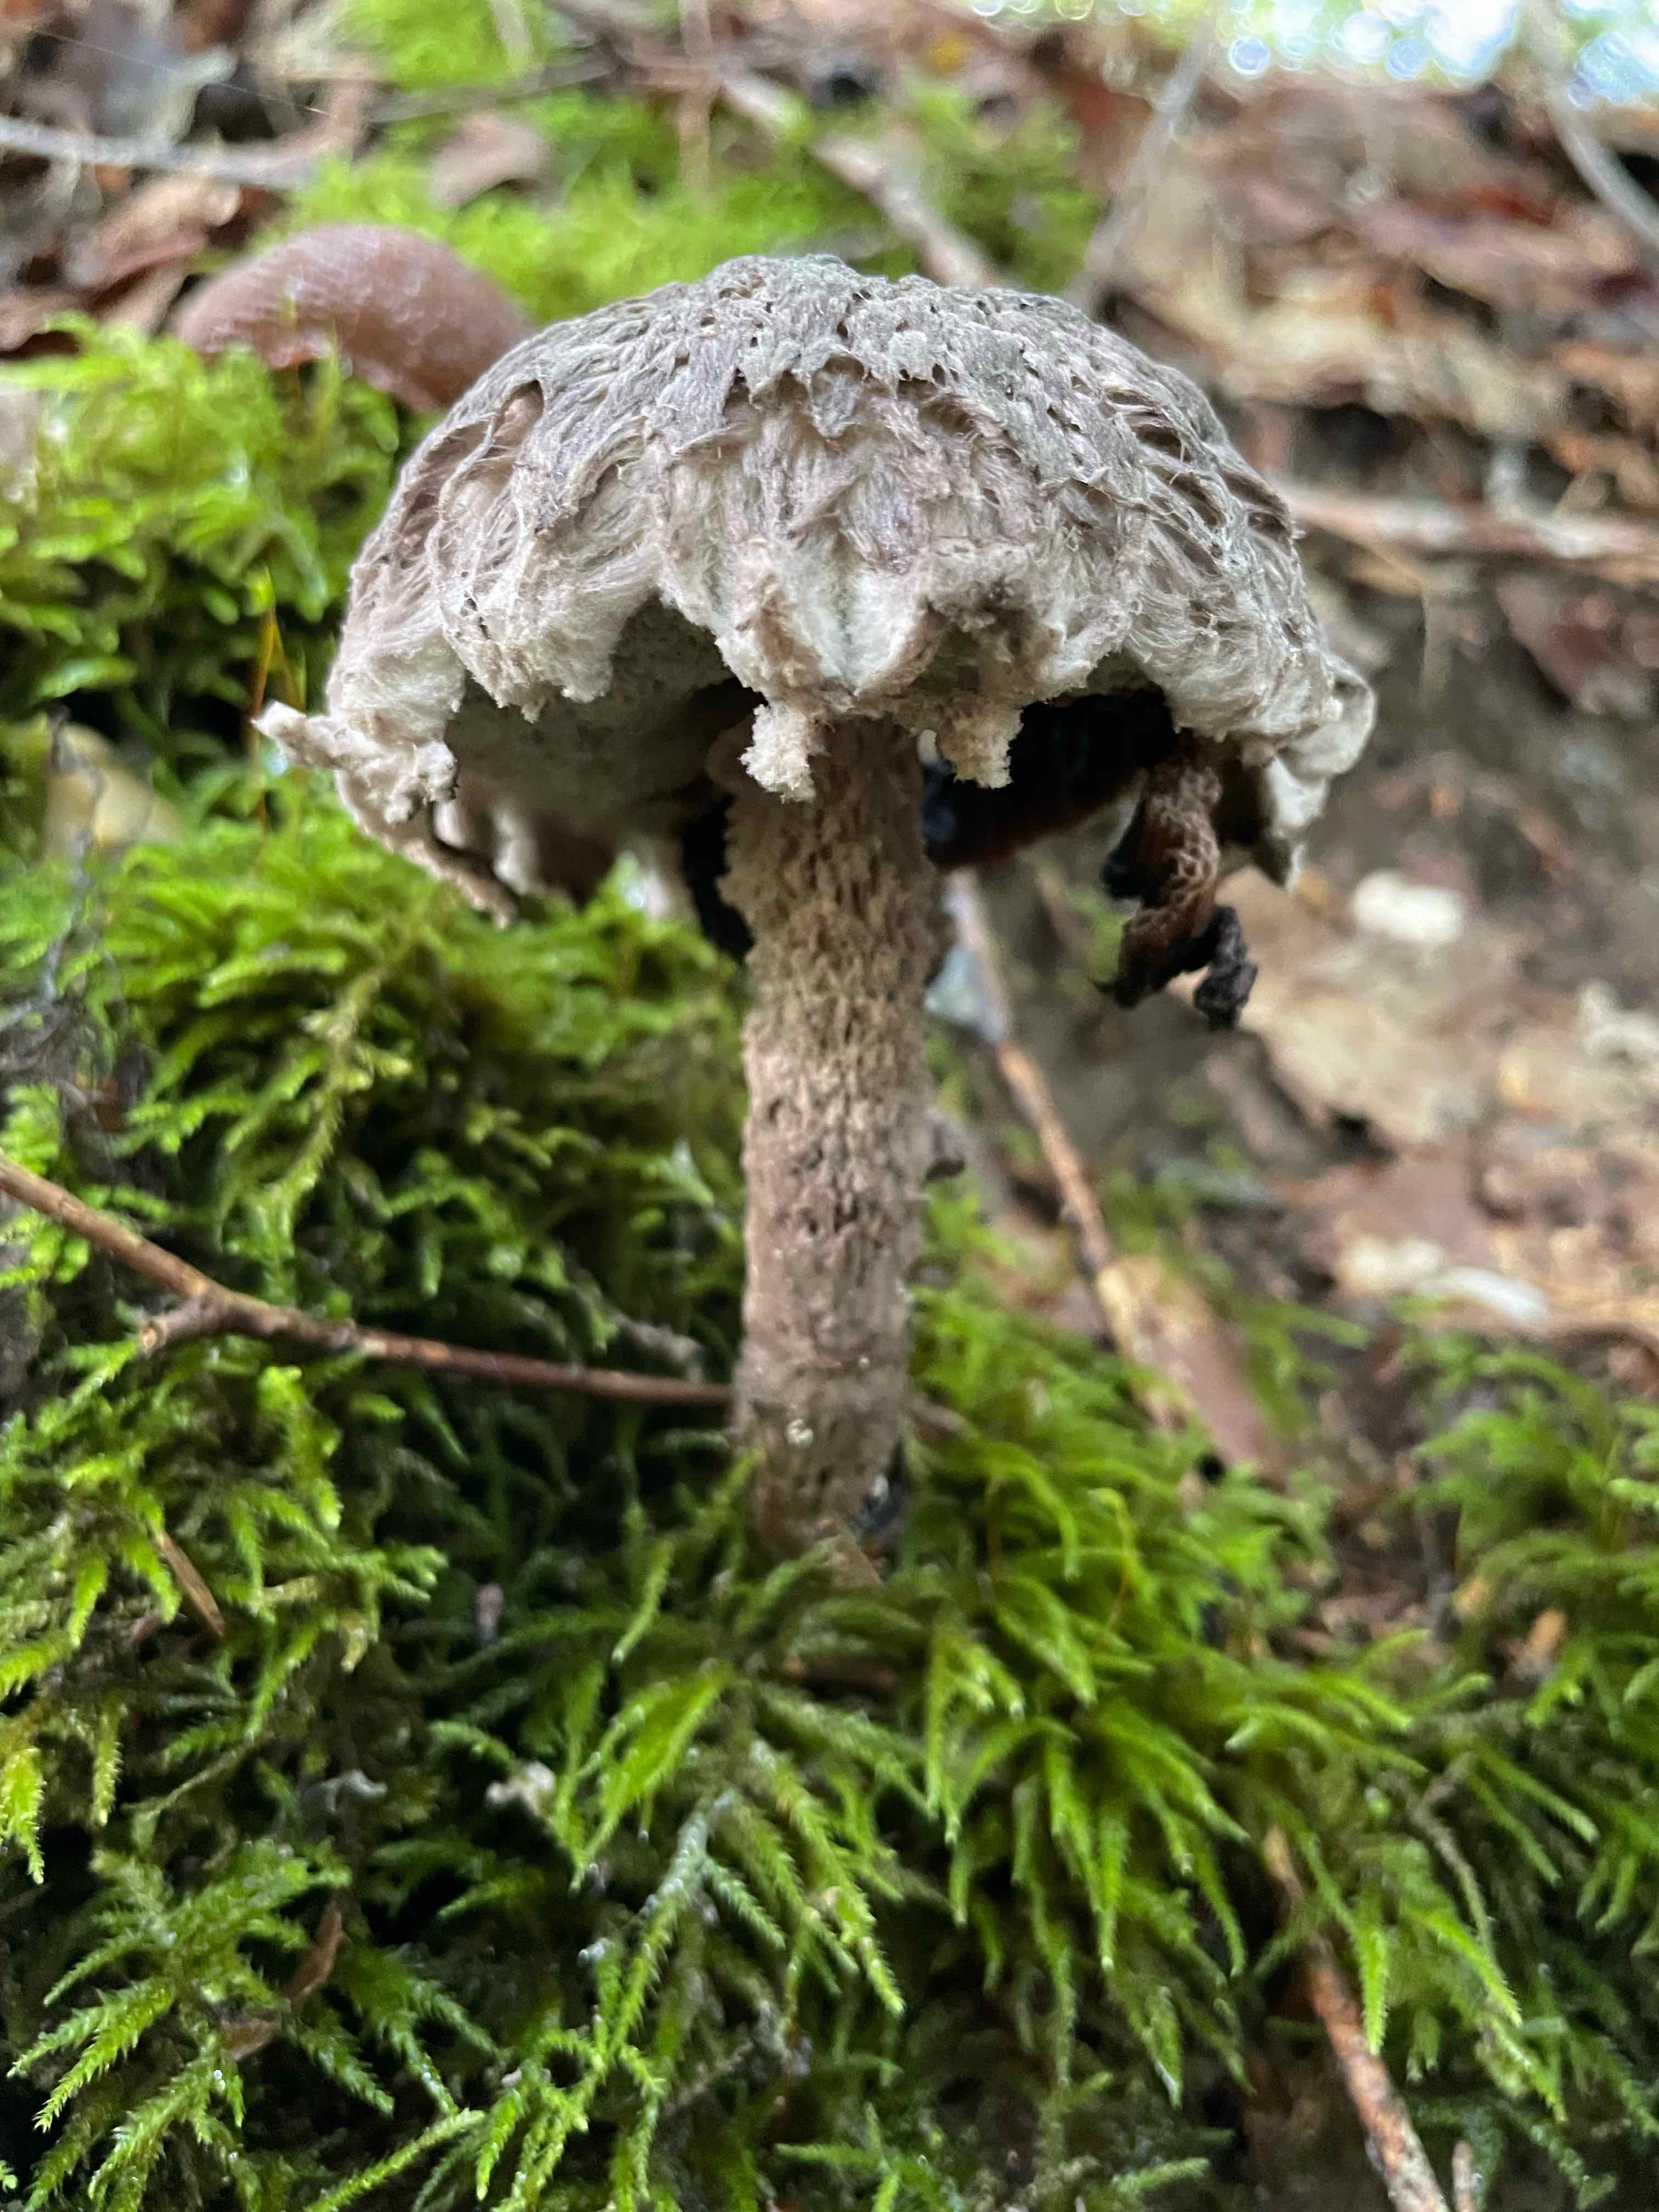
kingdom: Fungi
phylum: Basidiomycota
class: Agaricomycetes
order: Boletales
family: Boletaceae
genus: Strobilomyces
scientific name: Strobilomyces strobilaceus
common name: koglerørhat
